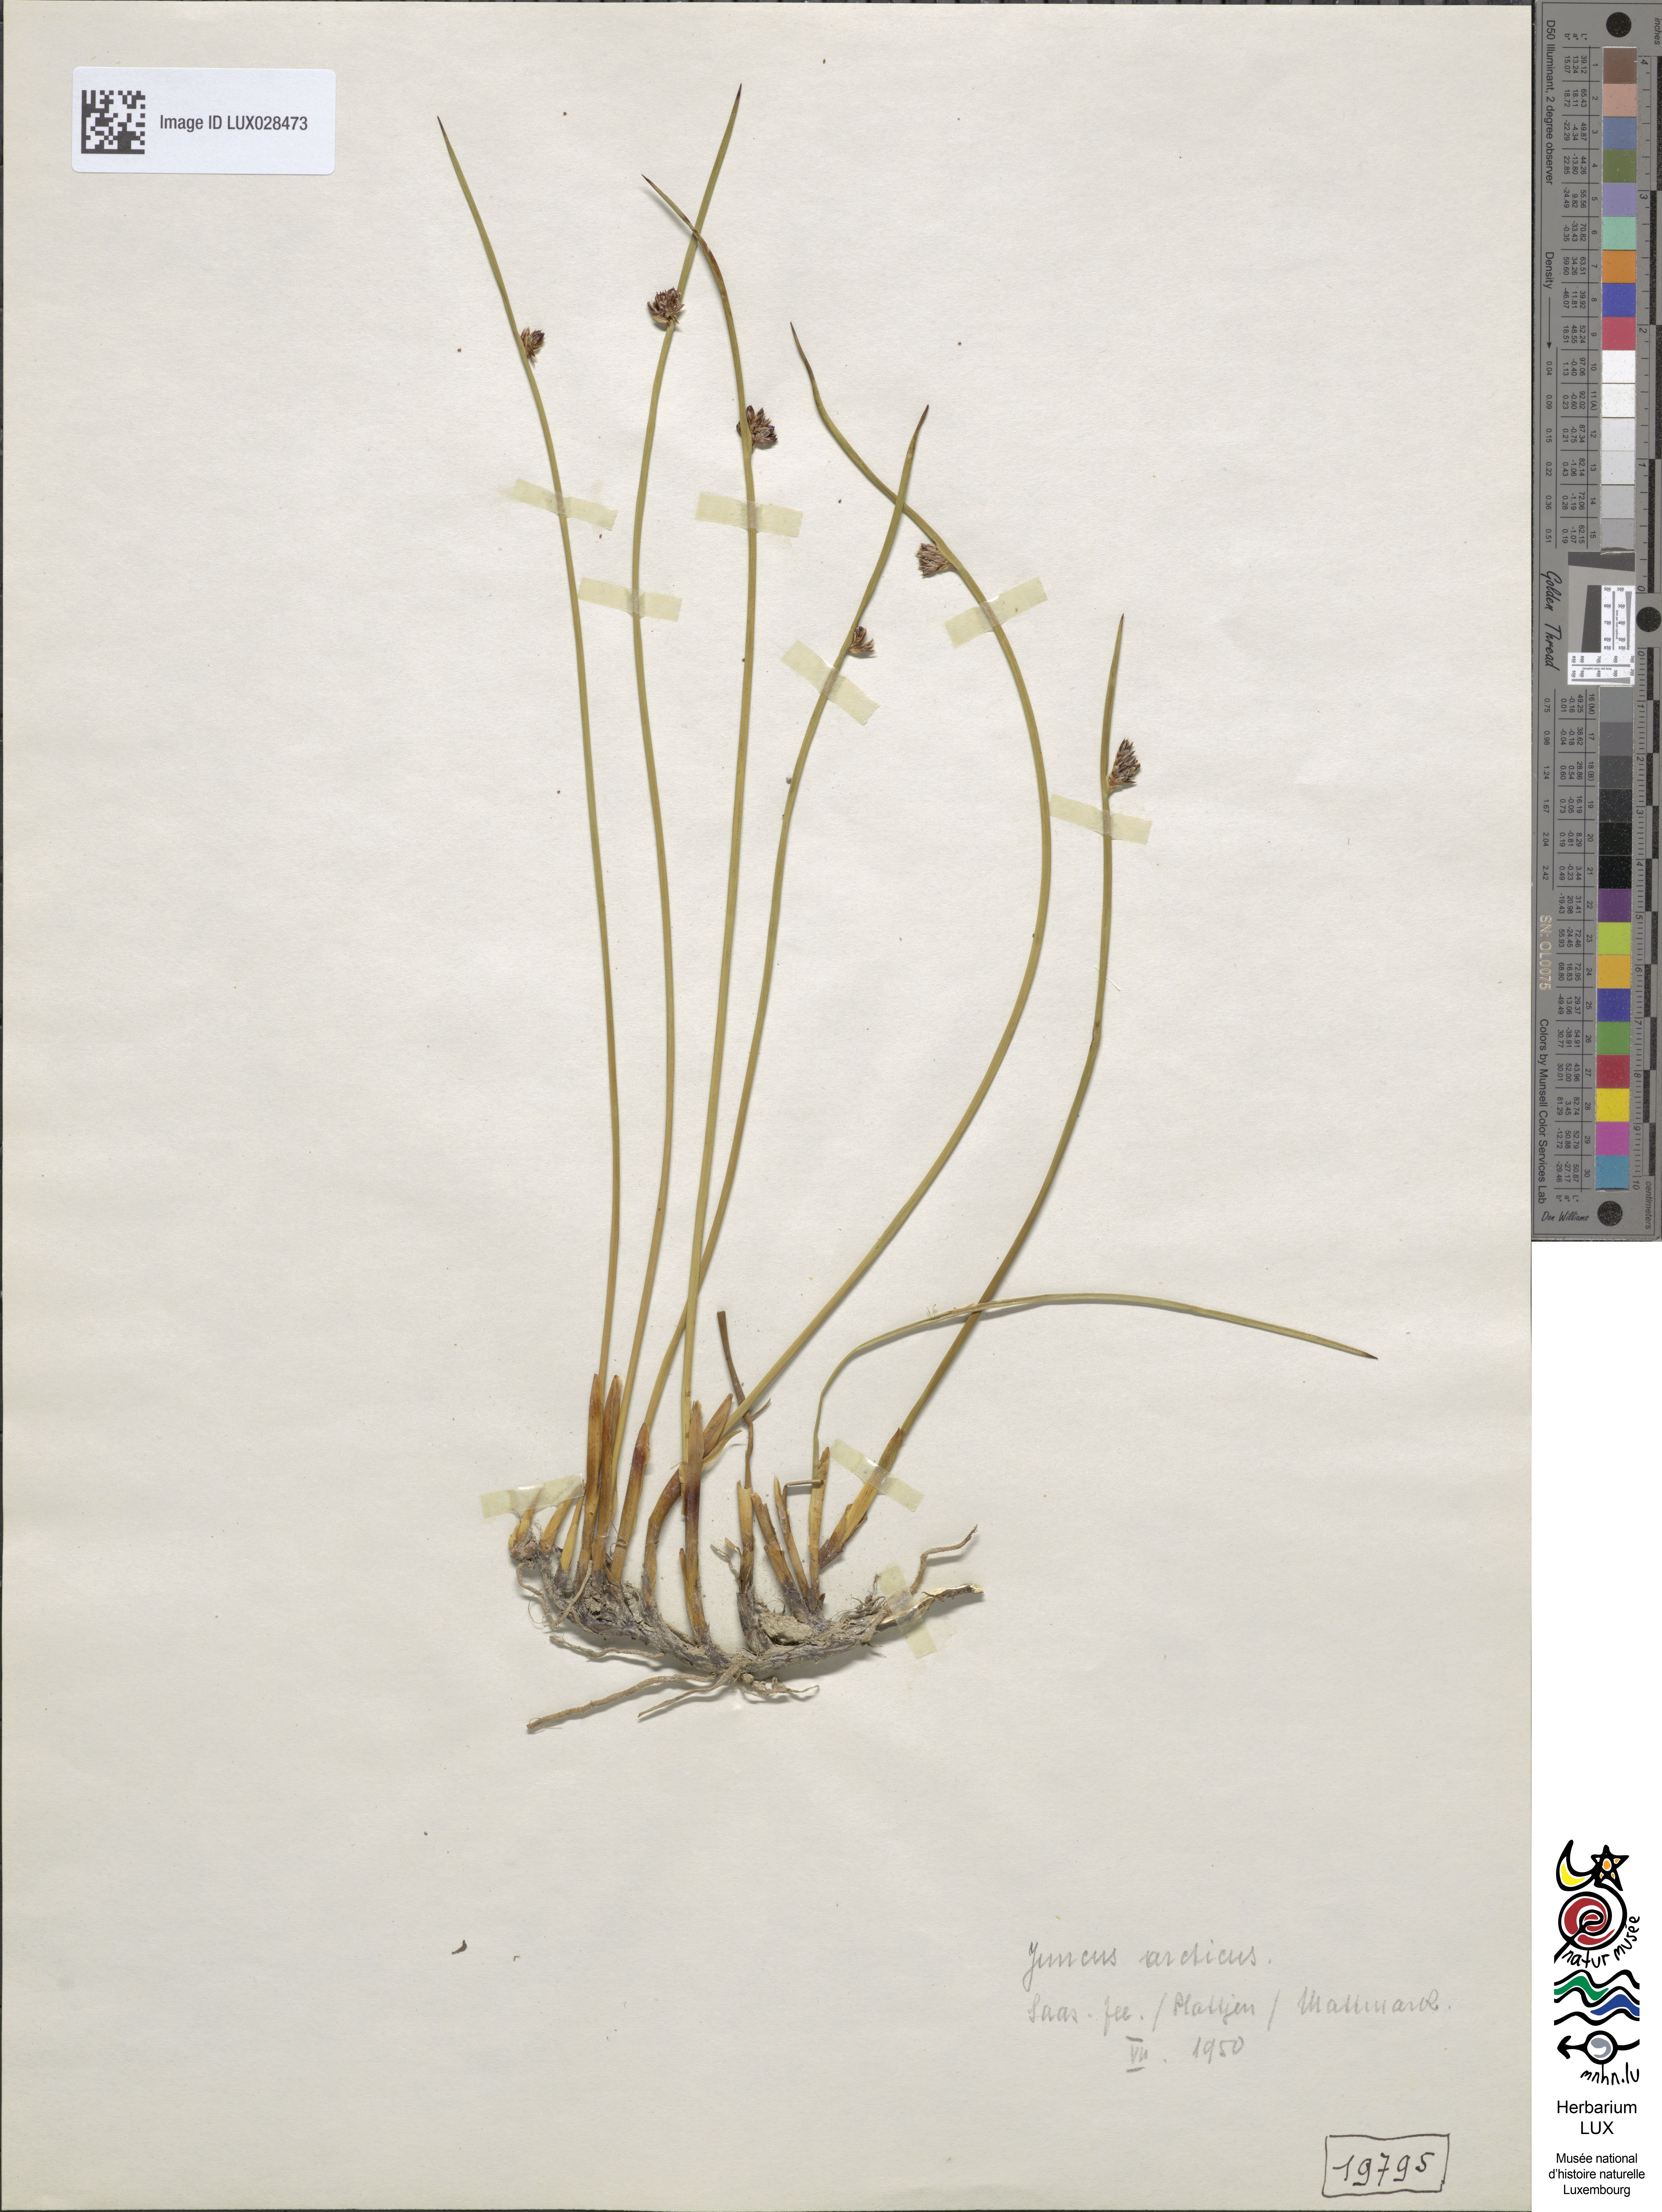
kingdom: Plantae
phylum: Tracheophyta
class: Liliopsida
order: Poales
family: Juncaceae
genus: Juncus
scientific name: Juncus arcticus
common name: Arctic rush
